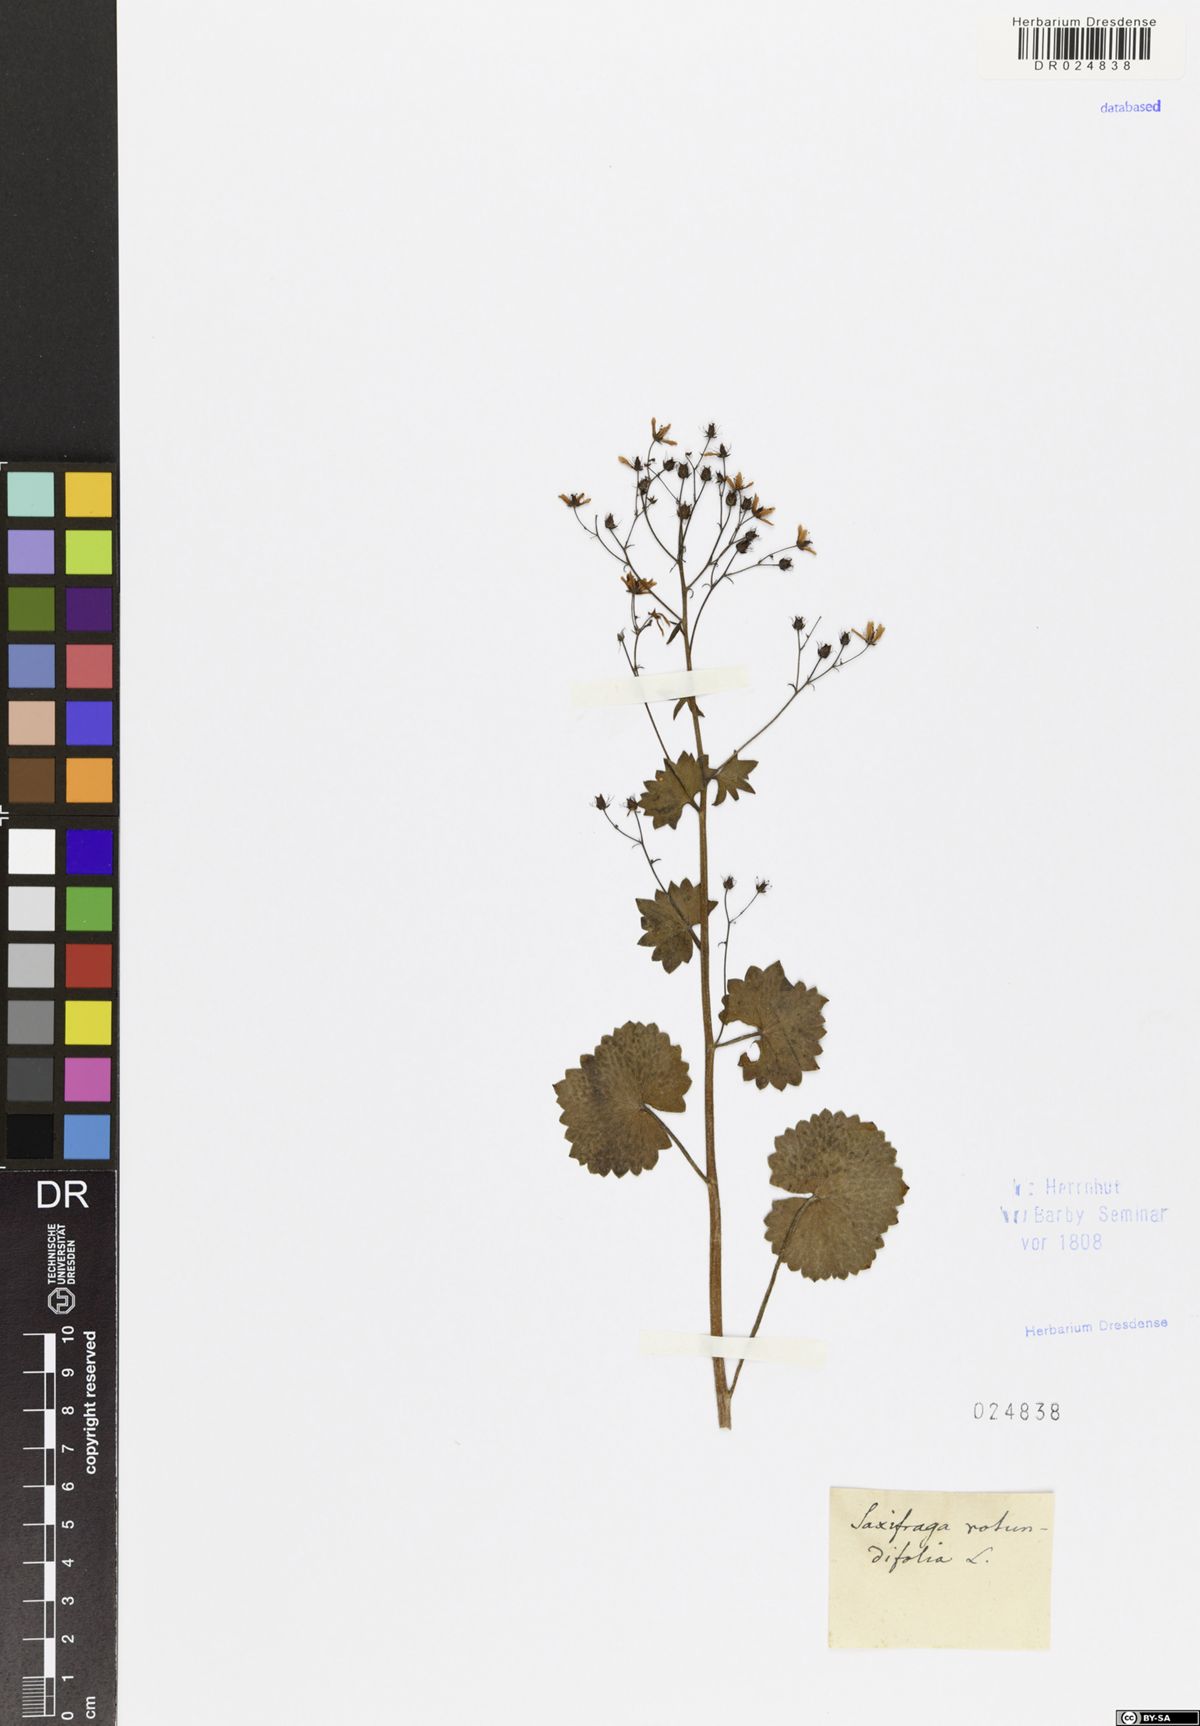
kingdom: Plantae
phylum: Tracheophyta
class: Magnoliopsida
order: Saxifragales
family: Saxifragaceae
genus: Saxifraga
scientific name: Saxifraga rotundifolia
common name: Round-leaved saxifrage
